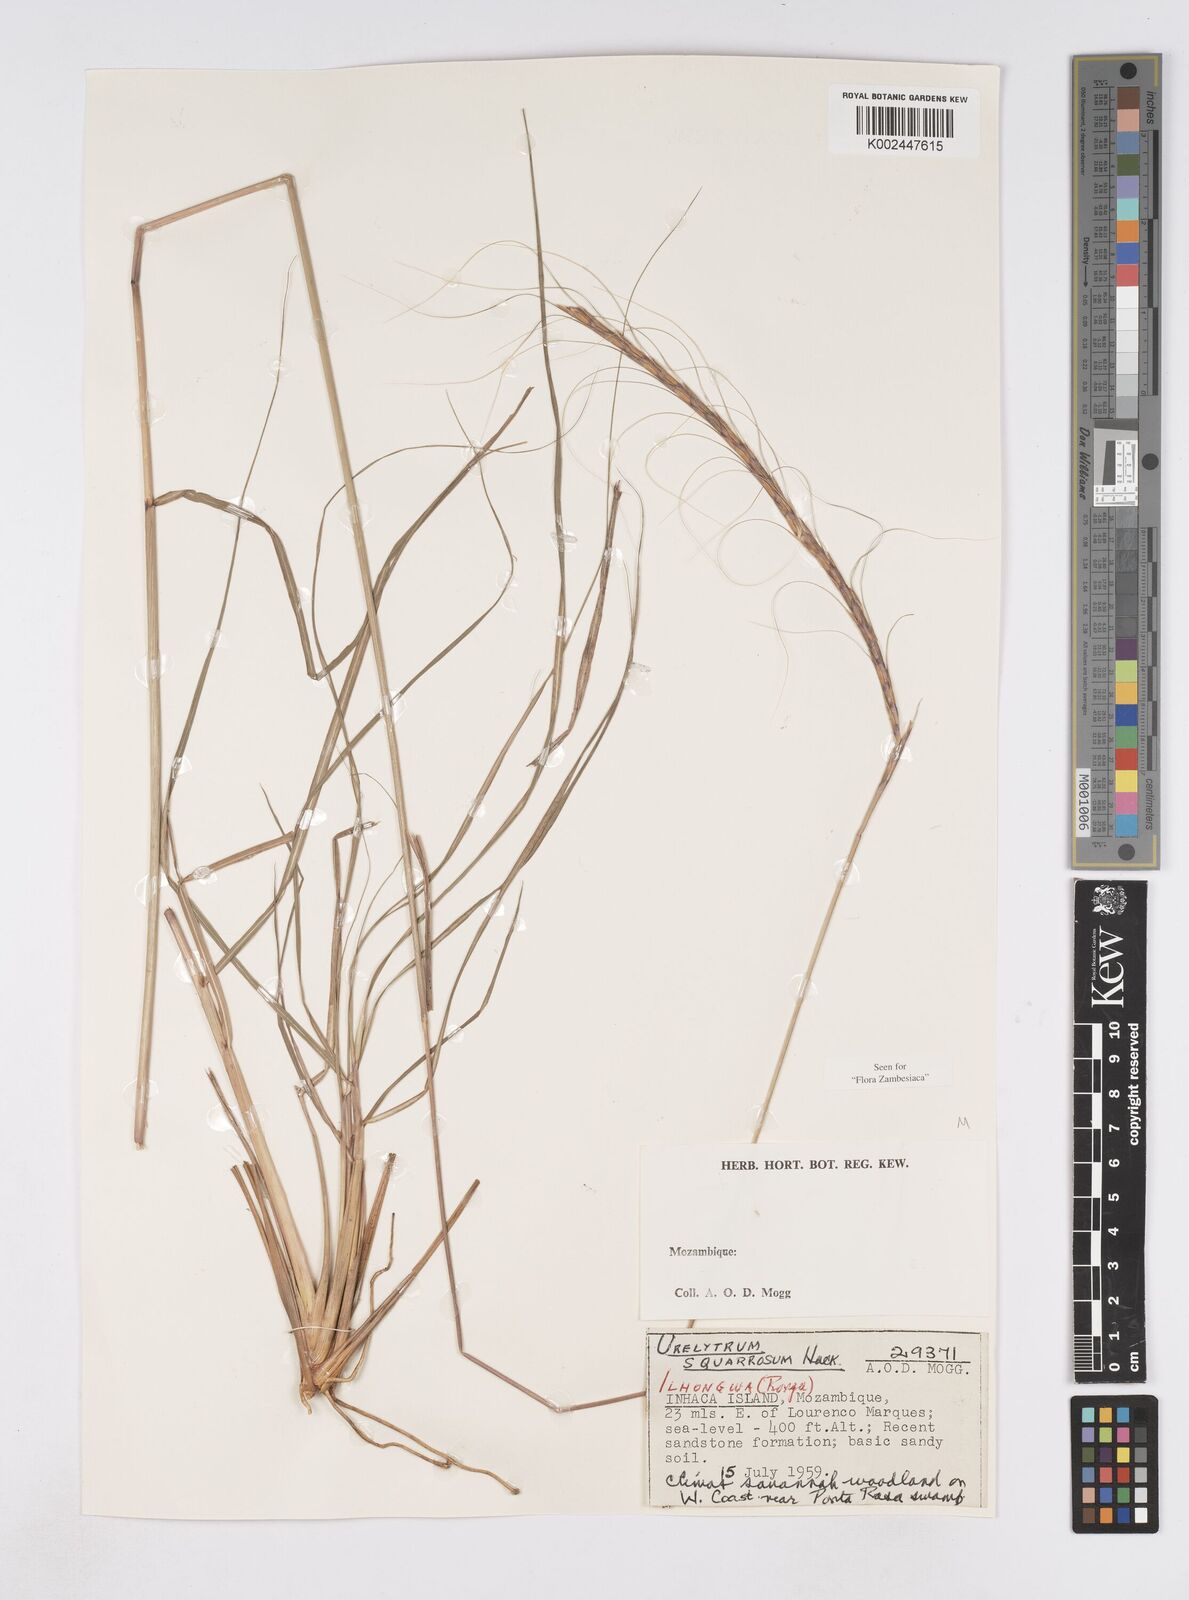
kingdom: Plantae
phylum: Tracheophyta
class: Liliopsida
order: Poales
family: Poaceae
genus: Urelytrum
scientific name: Urelytrum agropyroides
